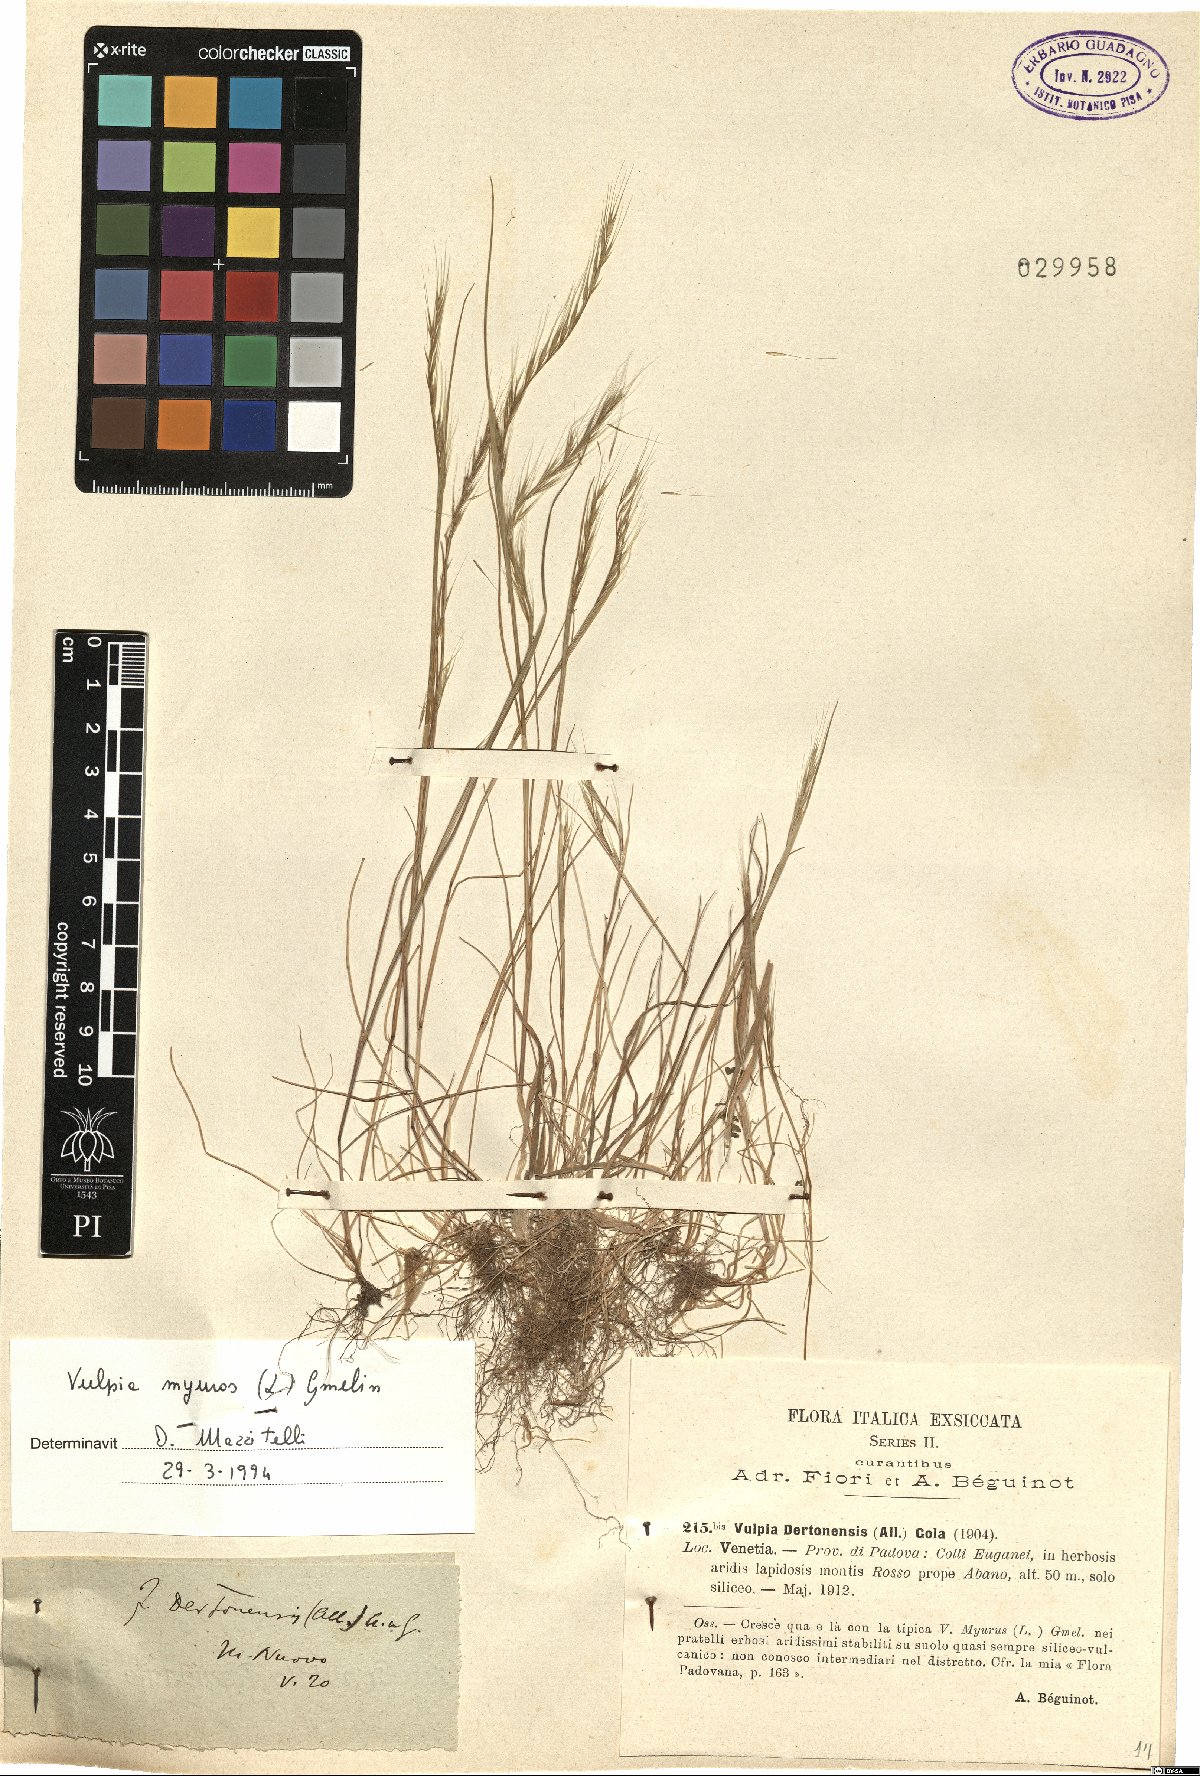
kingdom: Plantae
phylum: Tracheophyta
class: Liliopsida
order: Poales
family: Poaceae
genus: Festuca
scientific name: Festuca myuros
